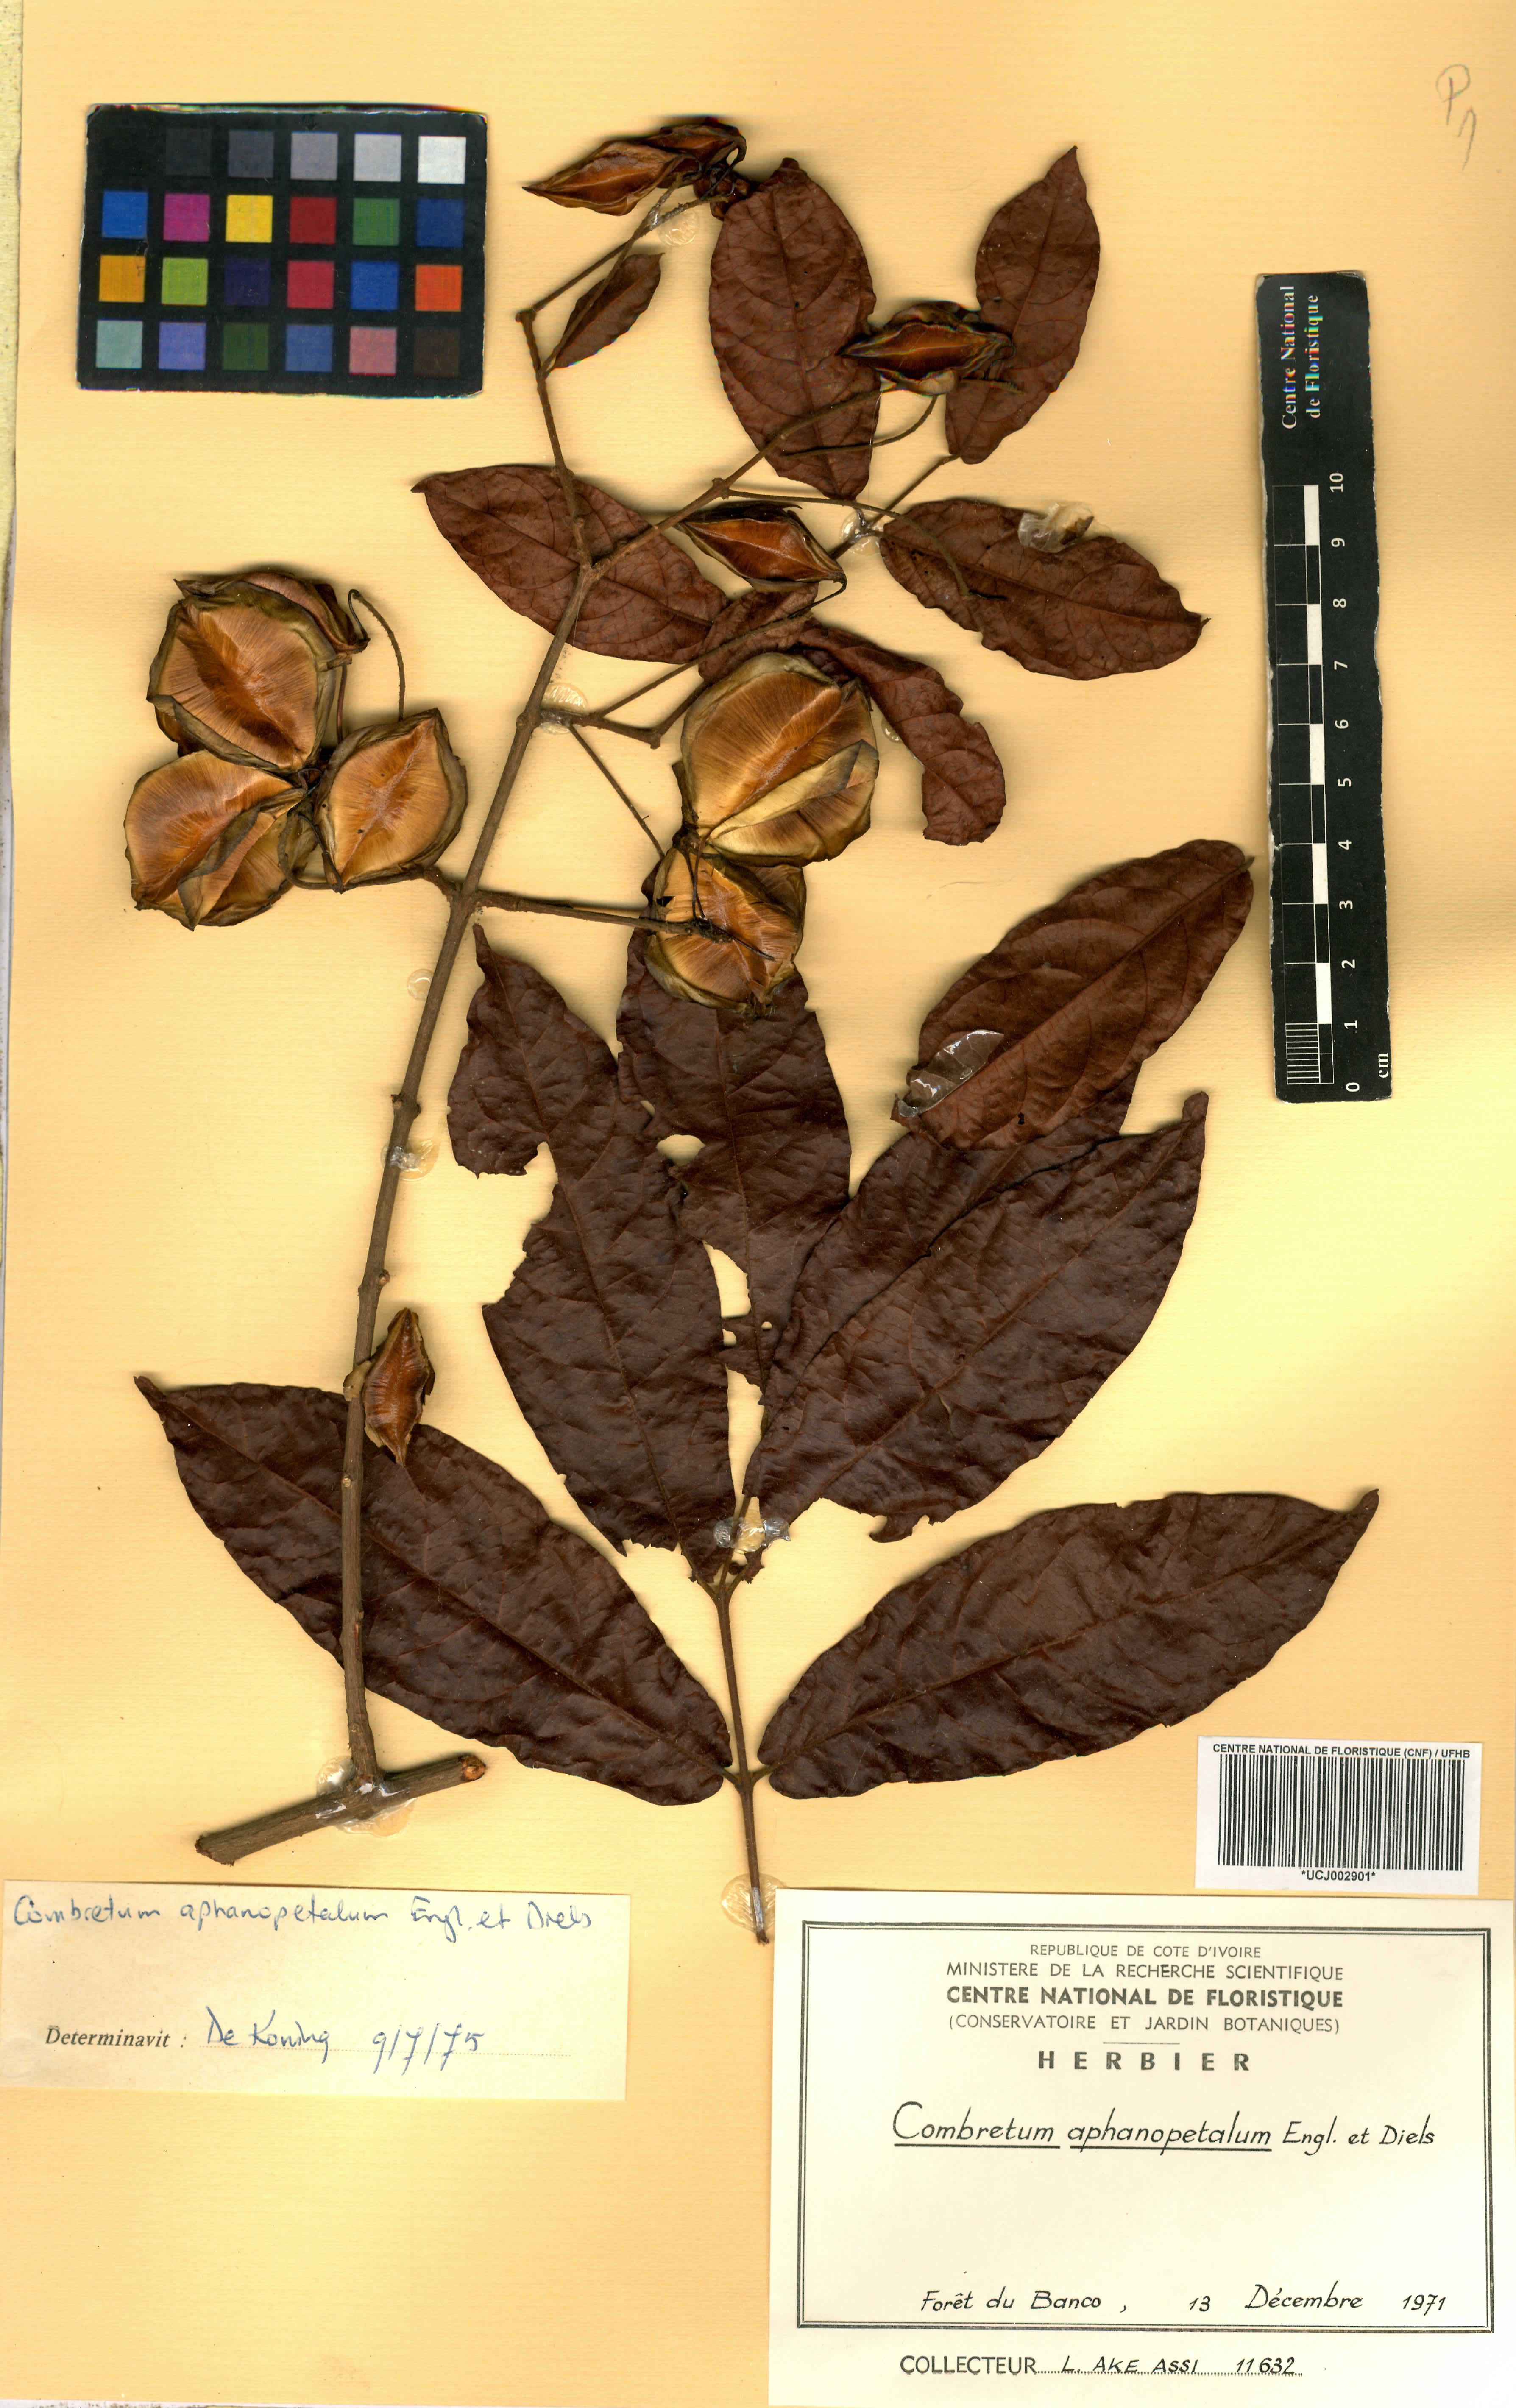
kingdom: Plantae
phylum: Tracheophyta
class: Magnoliopsida
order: Myrtales
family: Combretaceae
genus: Combretum
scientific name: Combretum adenogonium
